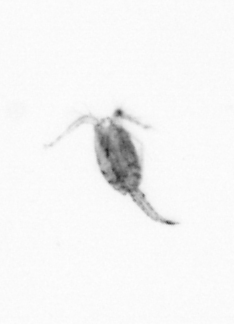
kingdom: Animalia
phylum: Arthropoda
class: Copepoda
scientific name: Copepoda
